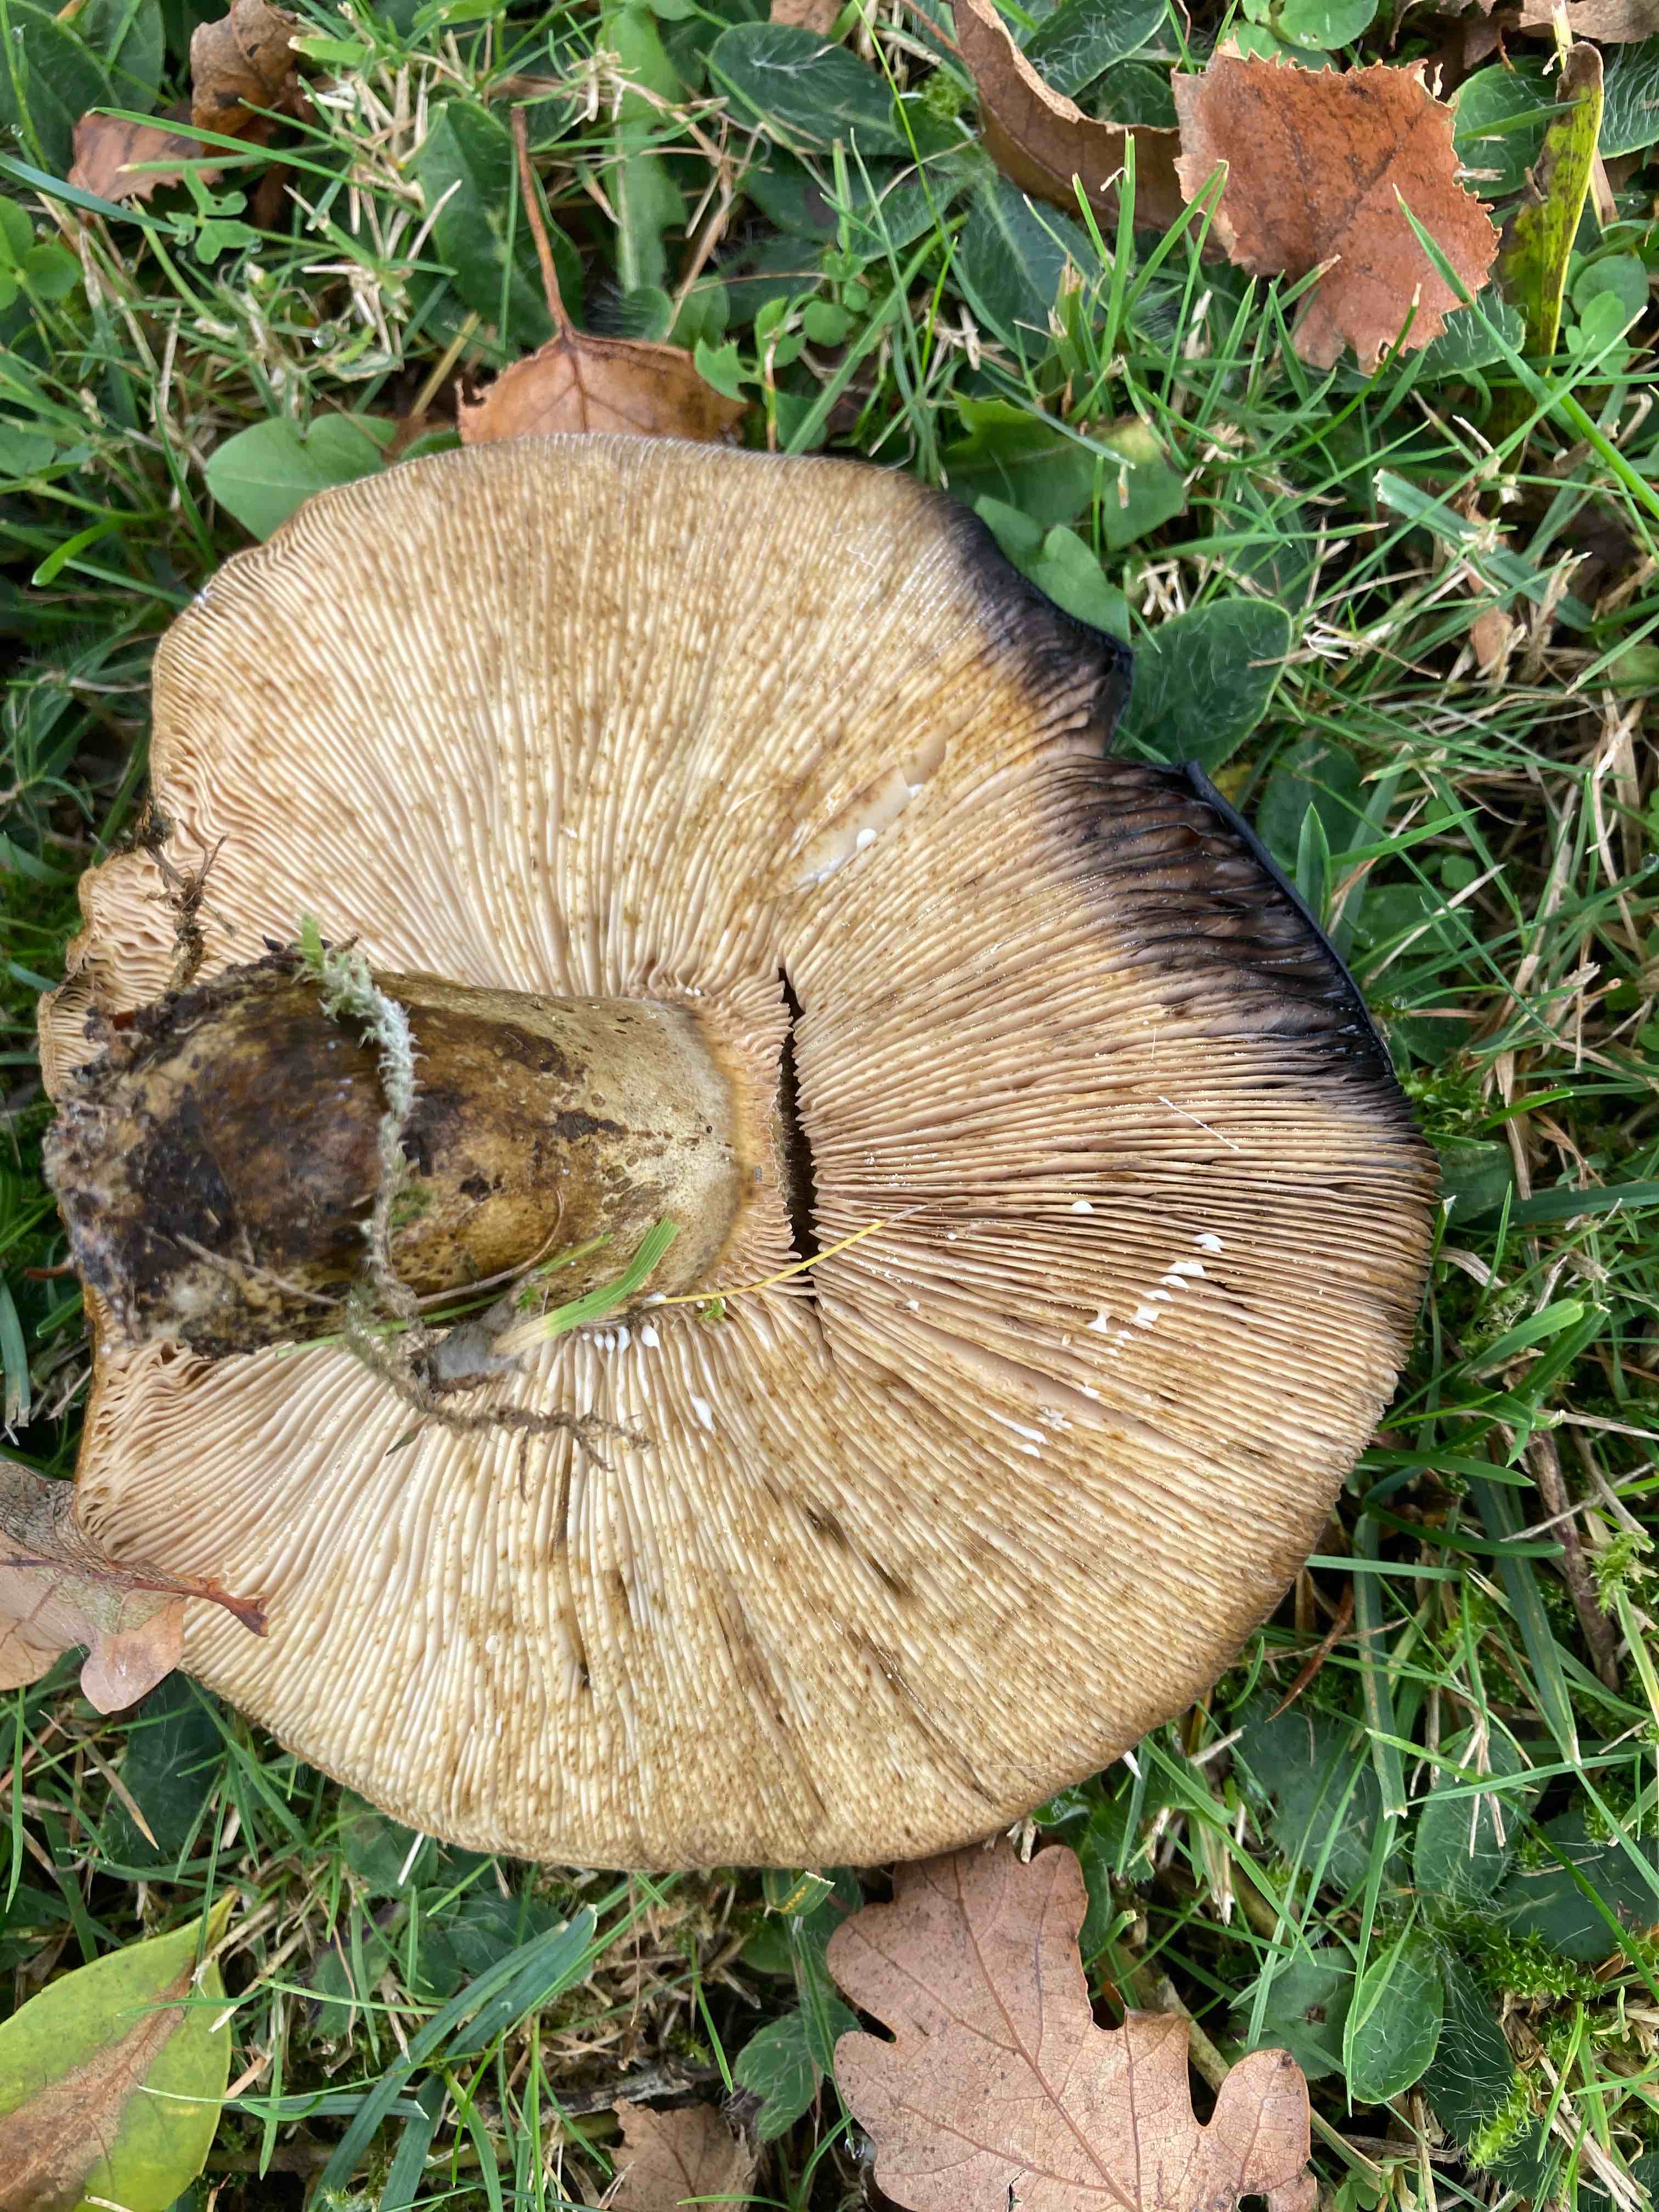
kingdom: Fungi
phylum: Basidiomycota
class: Agaricomycetes
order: Russulales
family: Russulaceae
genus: Lactarius
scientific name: Lactarius necator
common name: manddraber-mælkehat
